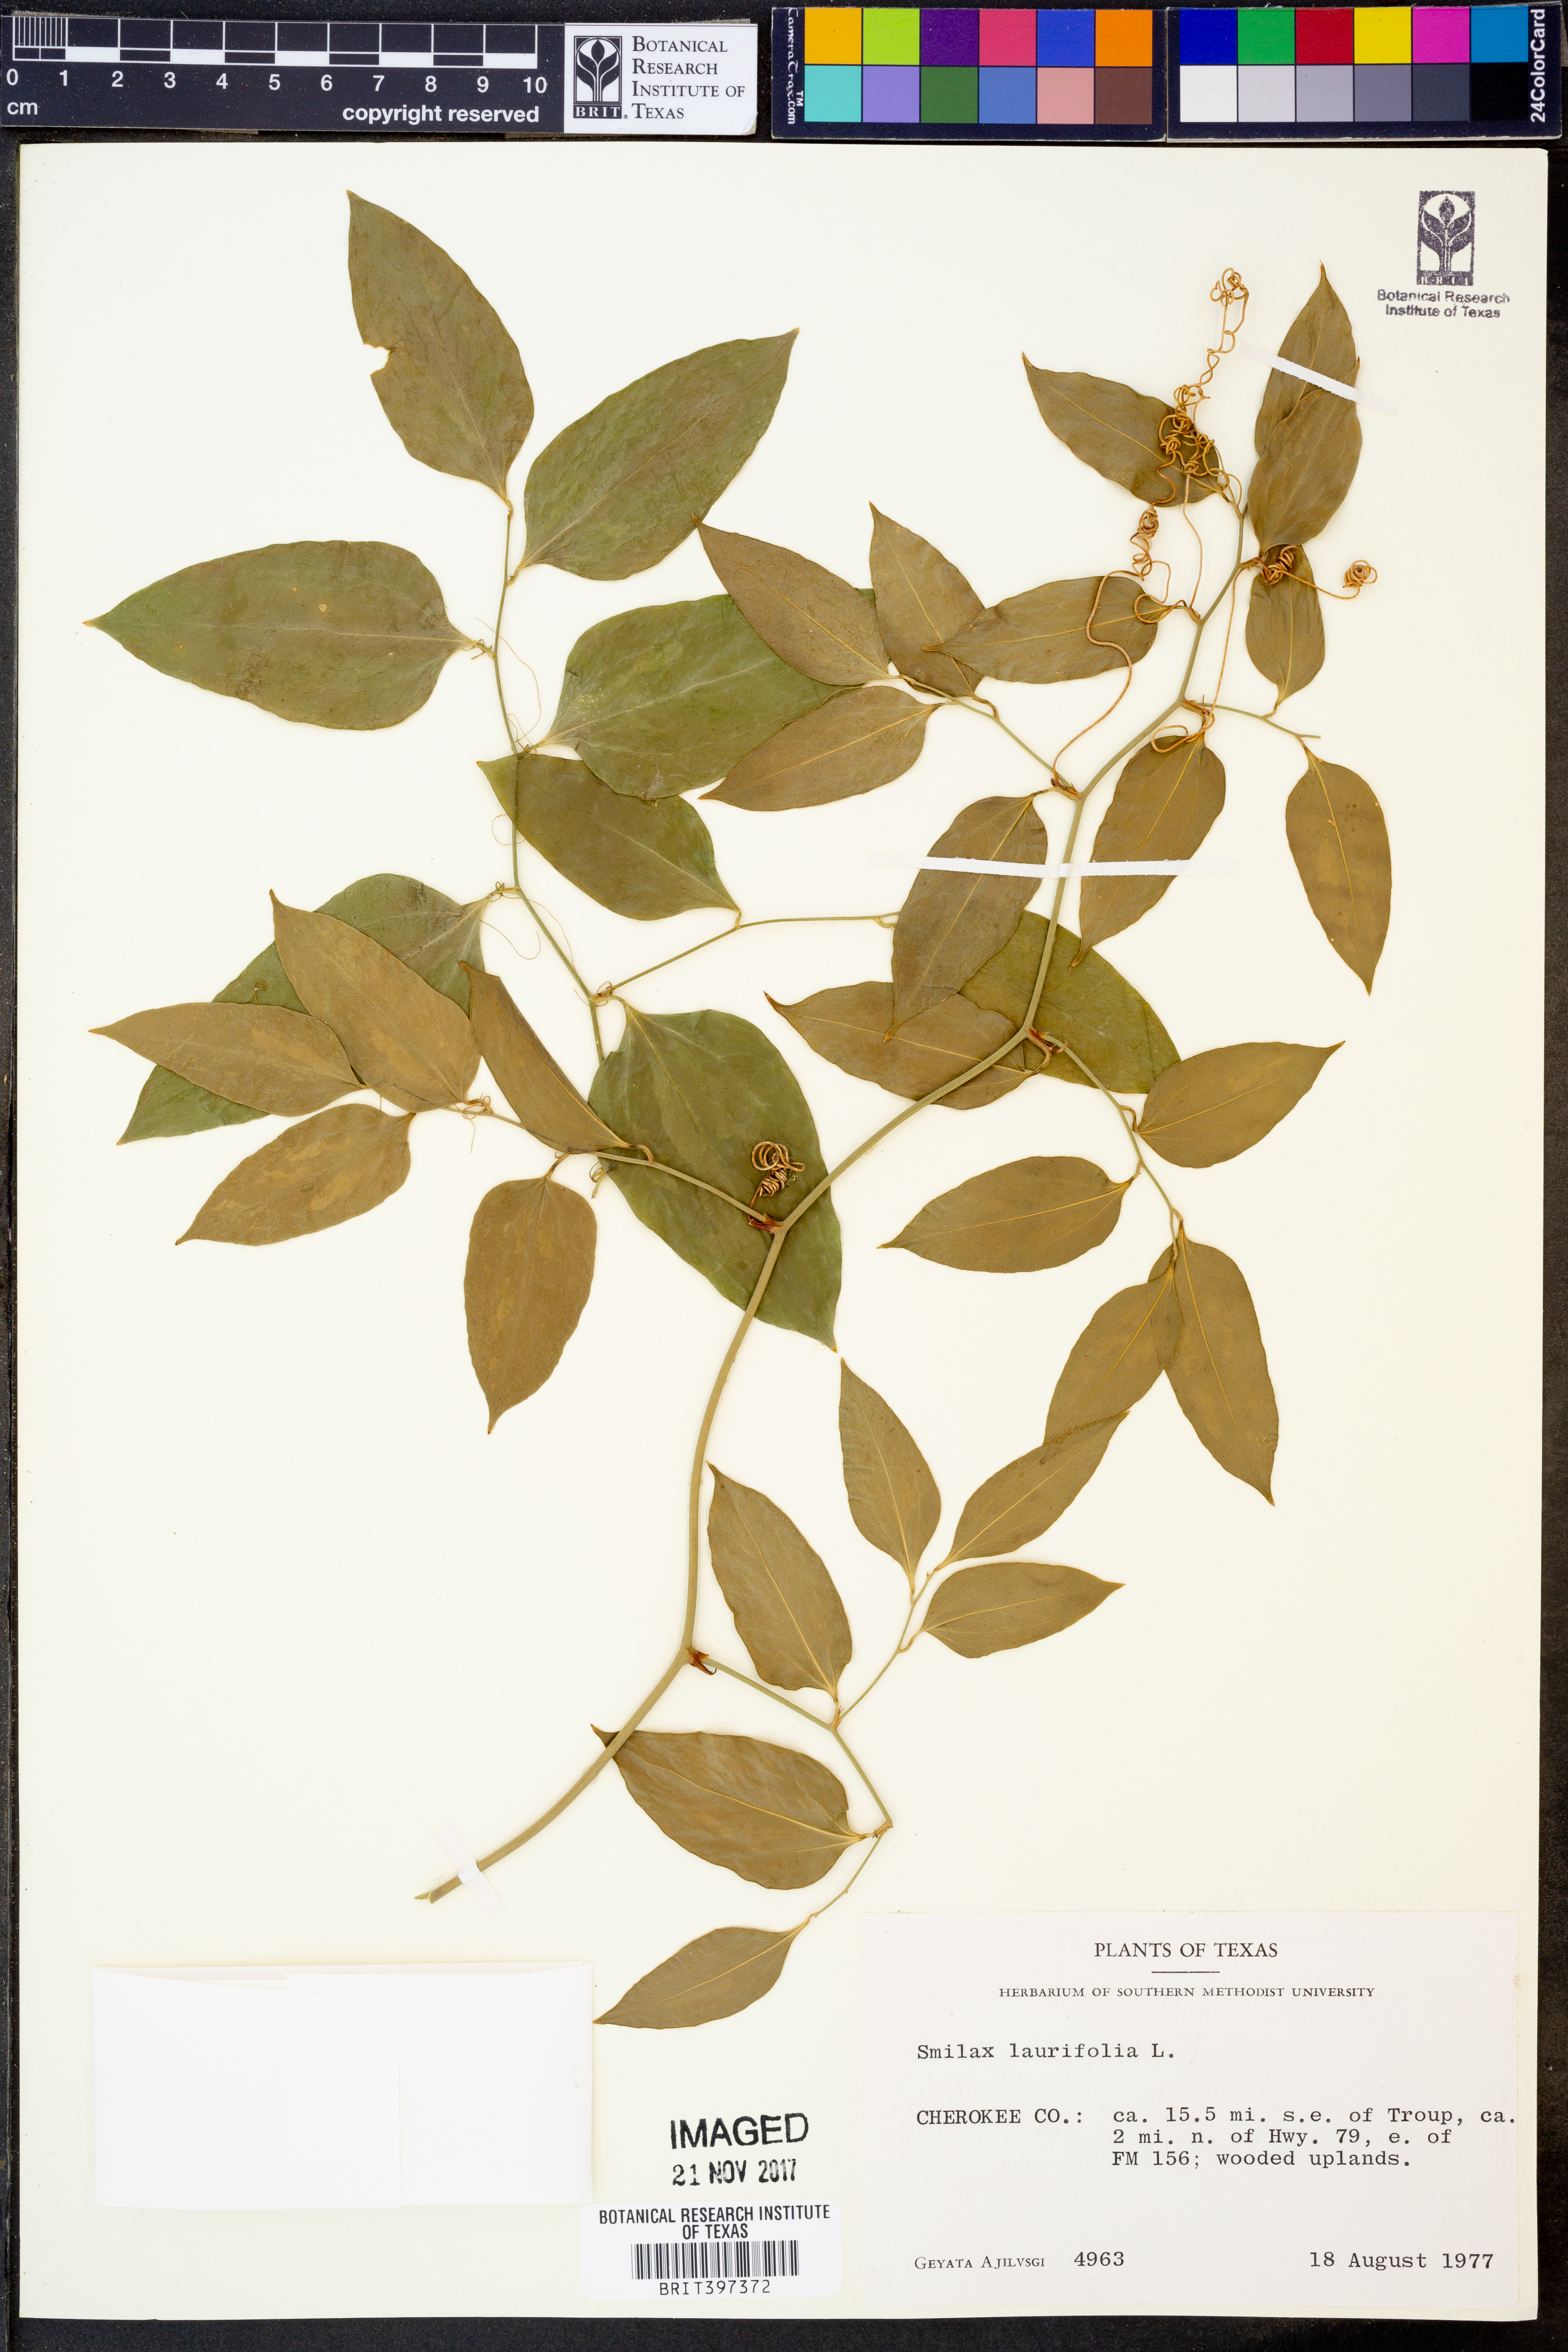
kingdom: Plantae
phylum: Tracheophyta
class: Liliopsida
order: Liliales
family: Smilacaceae
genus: Smilax
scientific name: Smilax laurifolia
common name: Bamboovine
